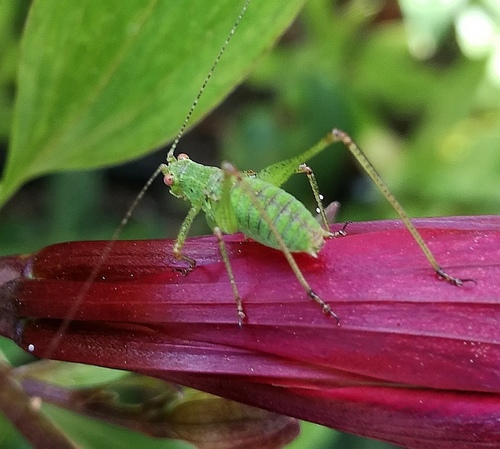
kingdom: Animalia
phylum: Arthropoda
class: Insecta
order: Orthoptera
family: Tettigoniidae
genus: Phaneroptera
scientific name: Phaneroptera
